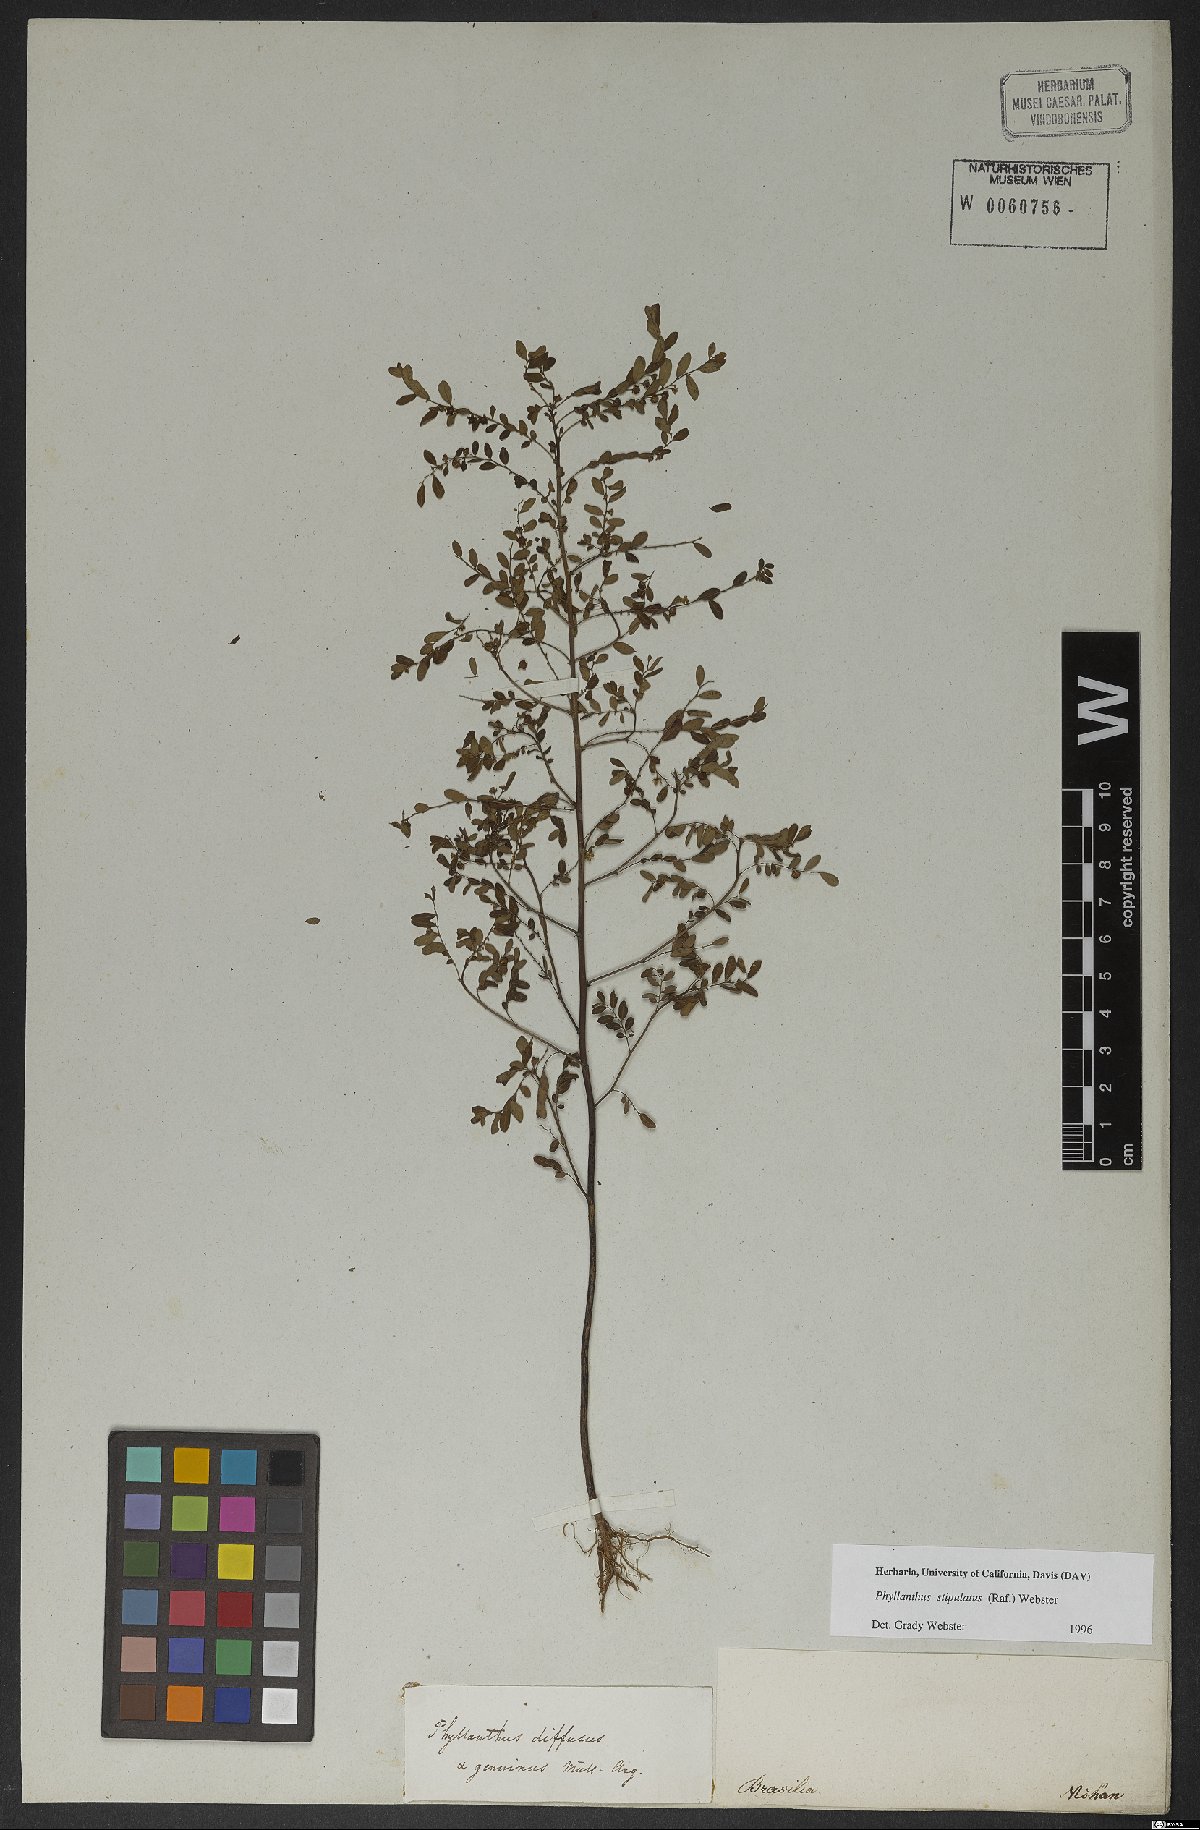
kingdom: Plantae
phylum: Tracheophyta
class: Magnoliopsida
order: Malpighiales
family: Phyllanthaceae
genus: Phyllanthus
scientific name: Phyllanthus stipulatus
